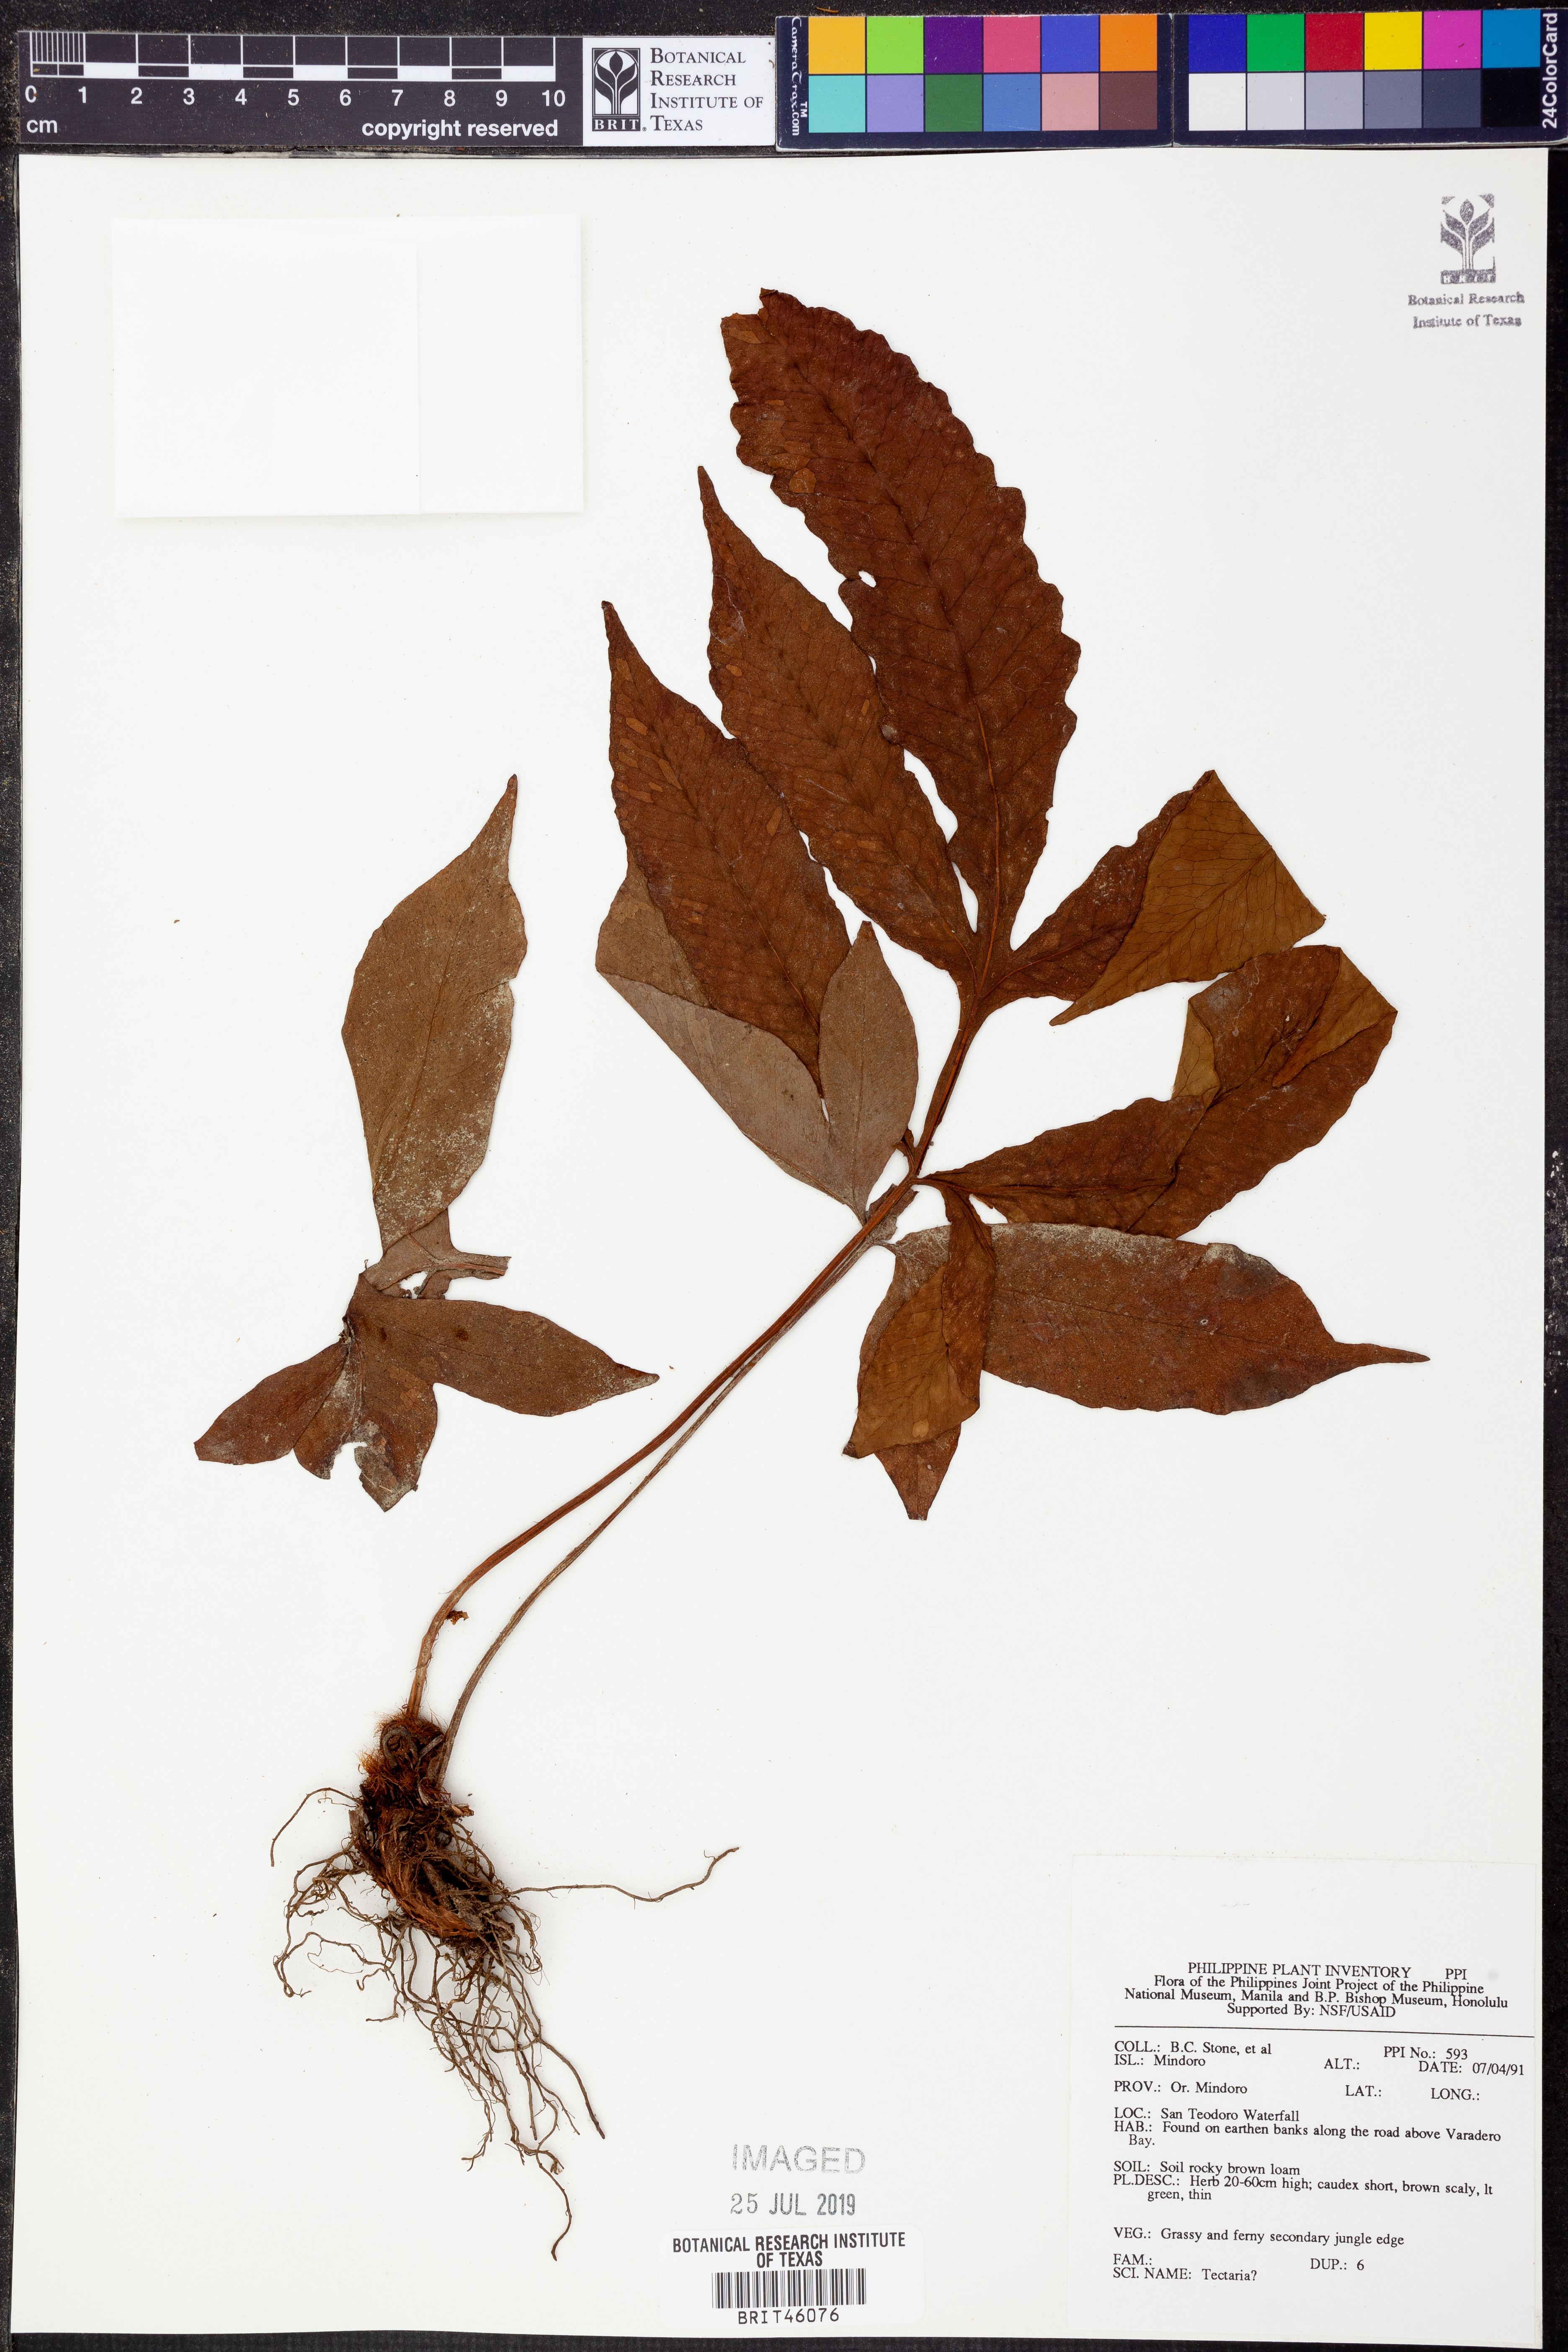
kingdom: Plantae
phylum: Tracheophyta
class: Polypodiopsida
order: Polypodiales
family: Tectariaceae
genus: Tectaria
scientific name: Tectaria
